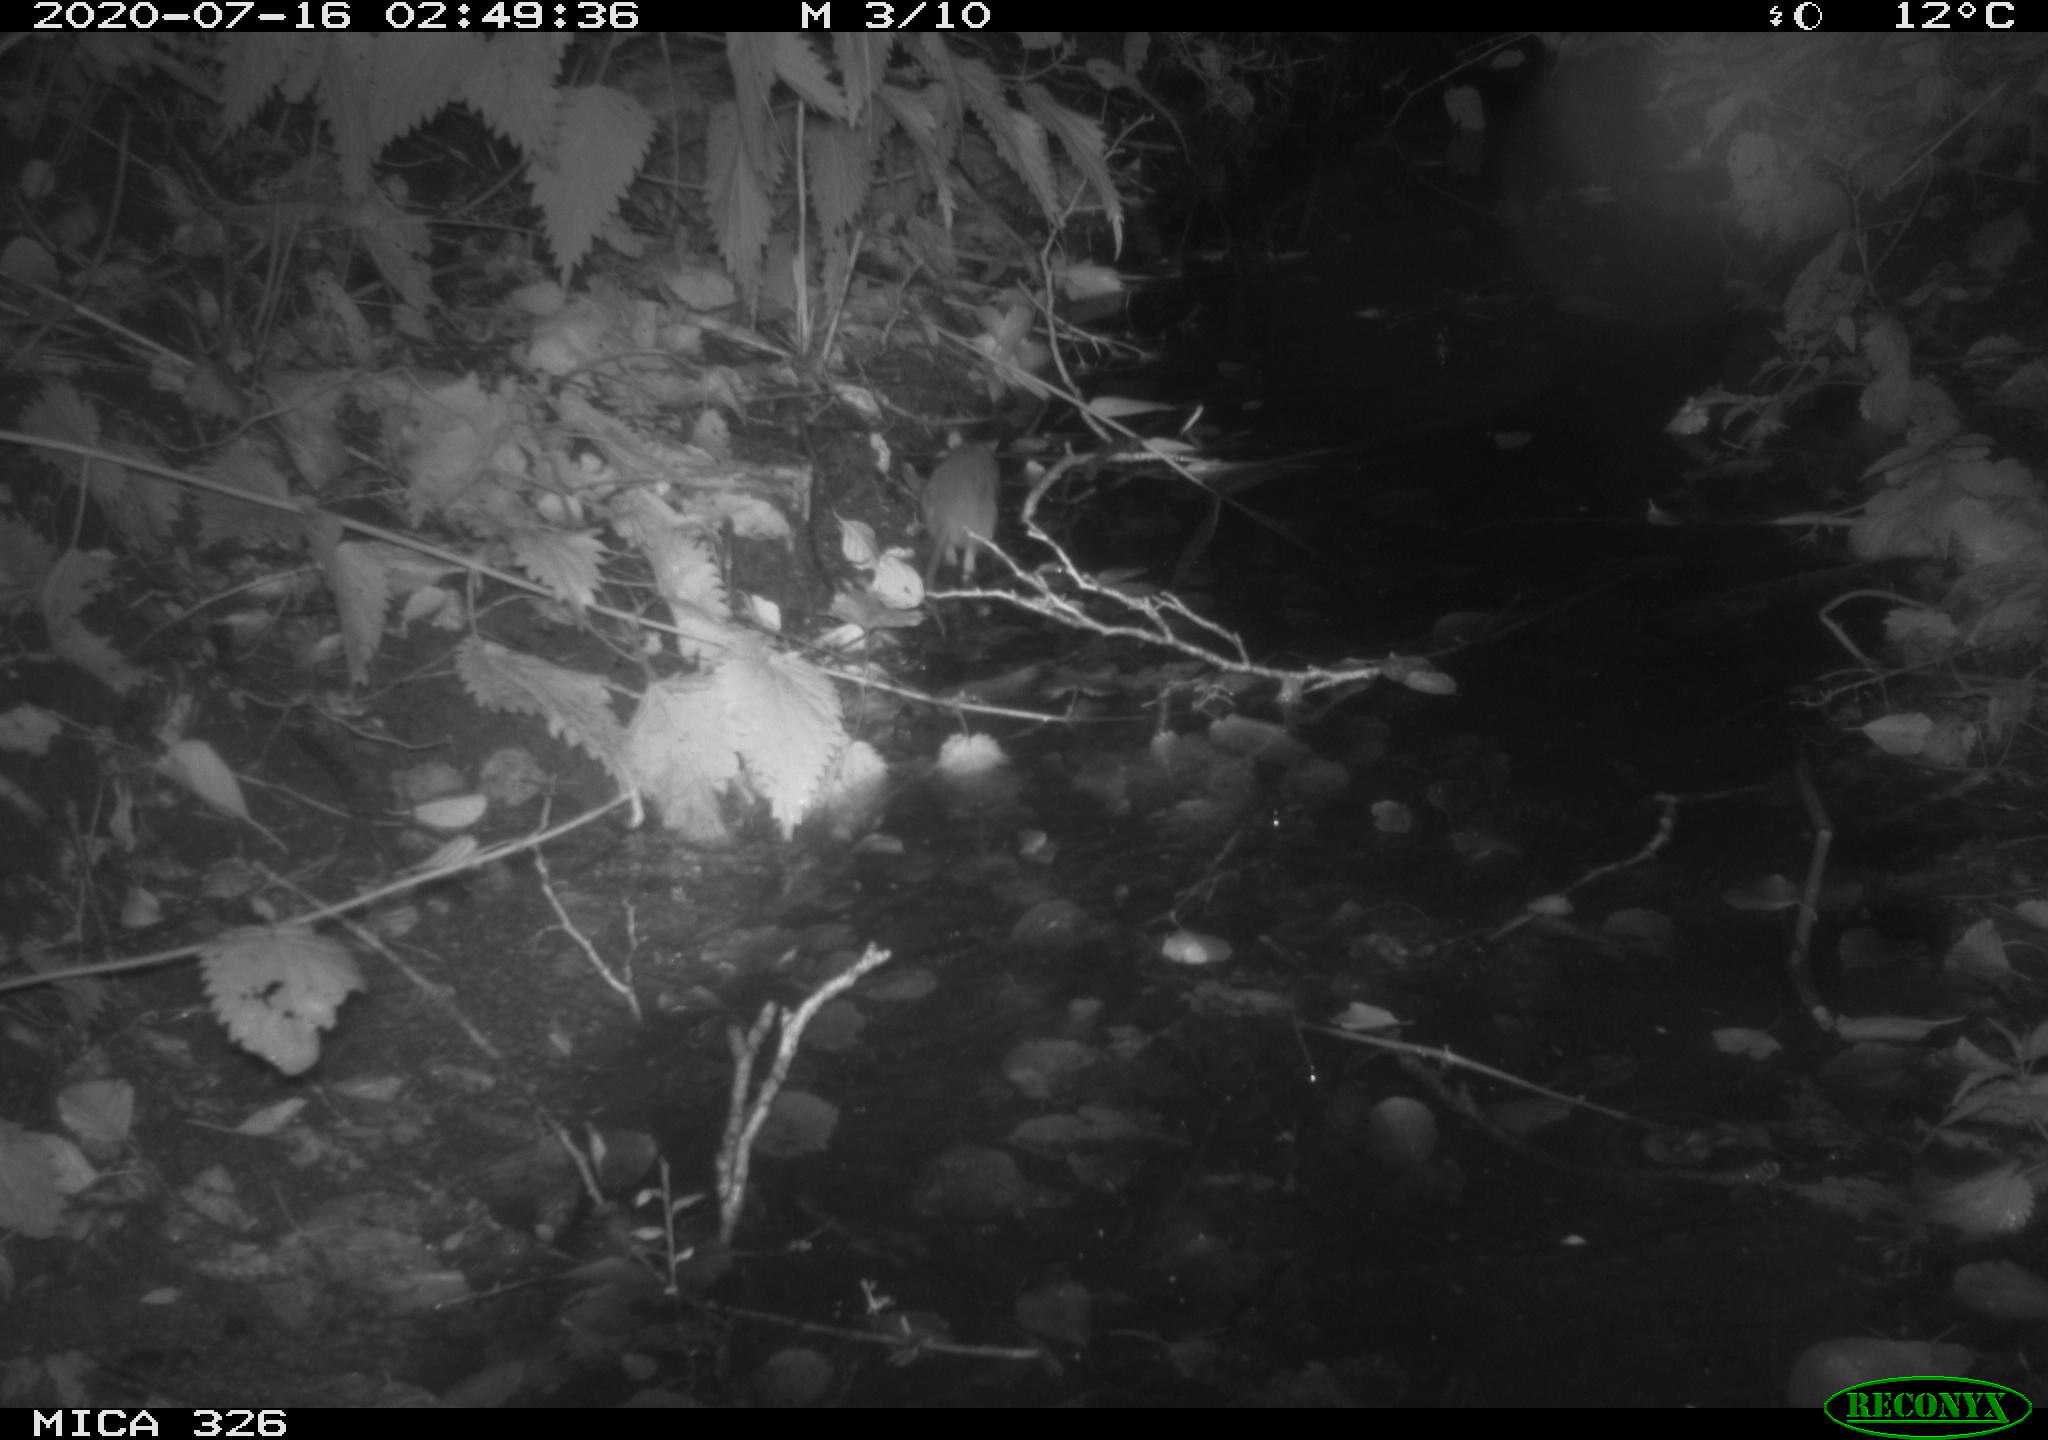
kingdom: Animalia
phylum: Chordata
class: Mammalia
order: Rodentia
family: Muridae
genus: Rattus
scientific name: Rattus norvegicus
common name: Brown rat
